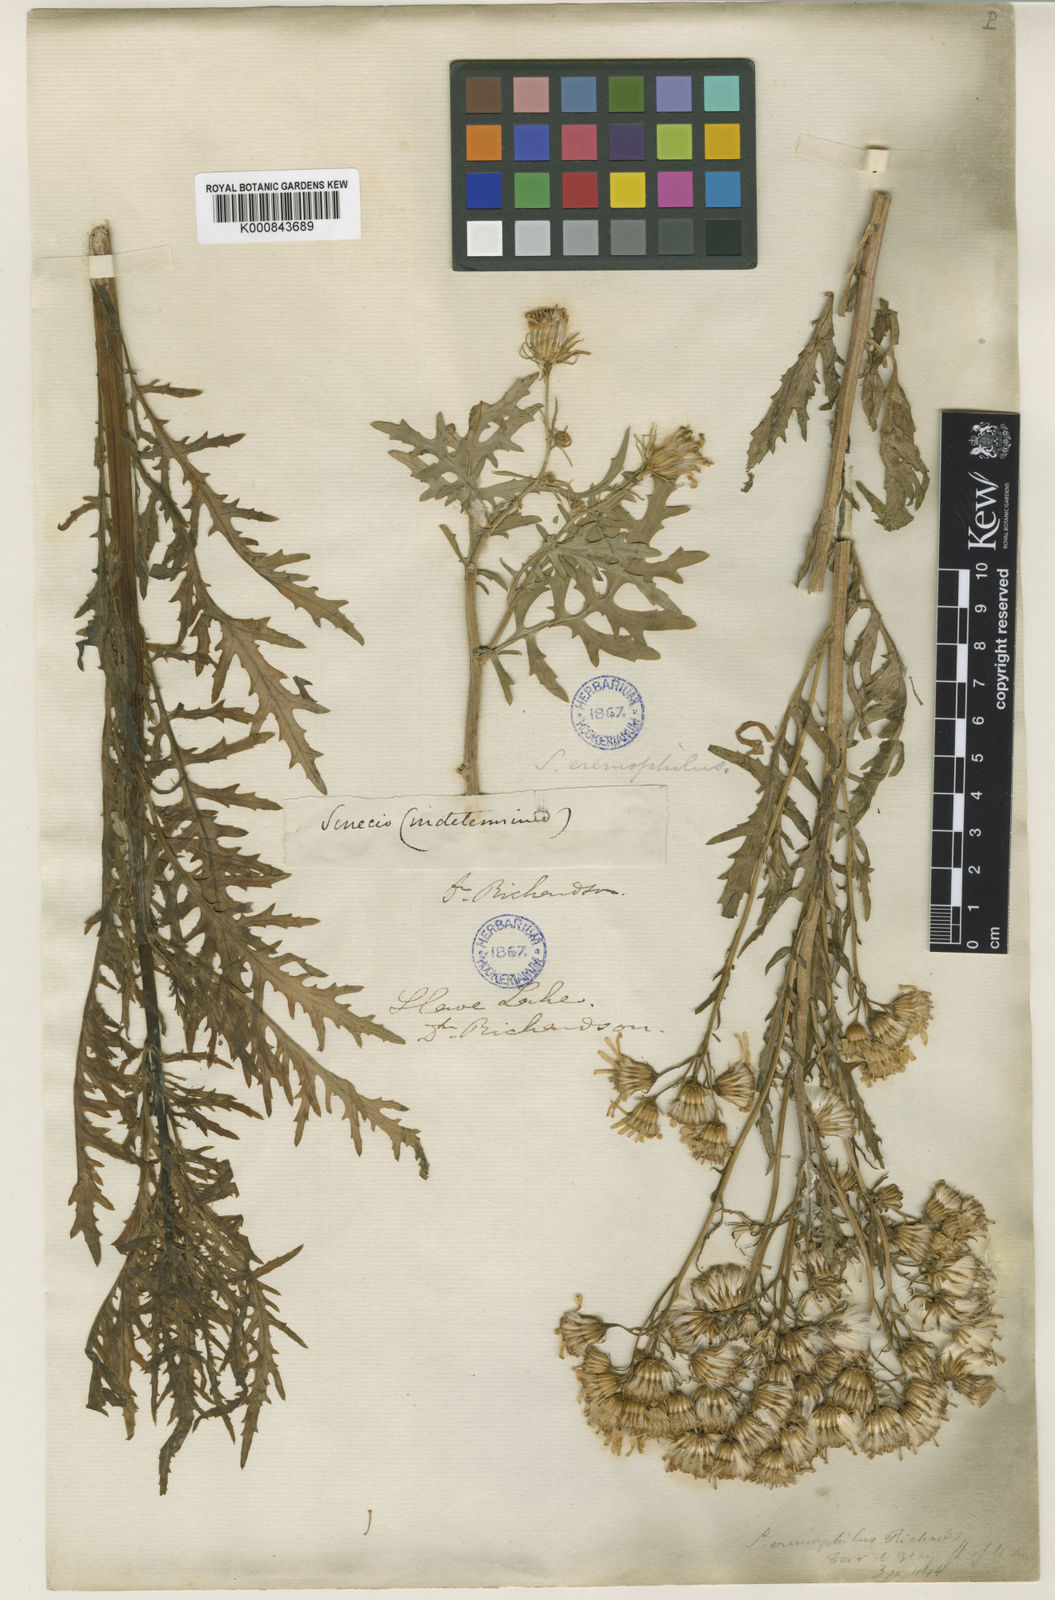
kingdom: Plantae
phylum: Tracheophyta
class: Magnoliopsida
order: Asterales
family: Asteraceae
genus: Senecio
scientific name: Senecio
